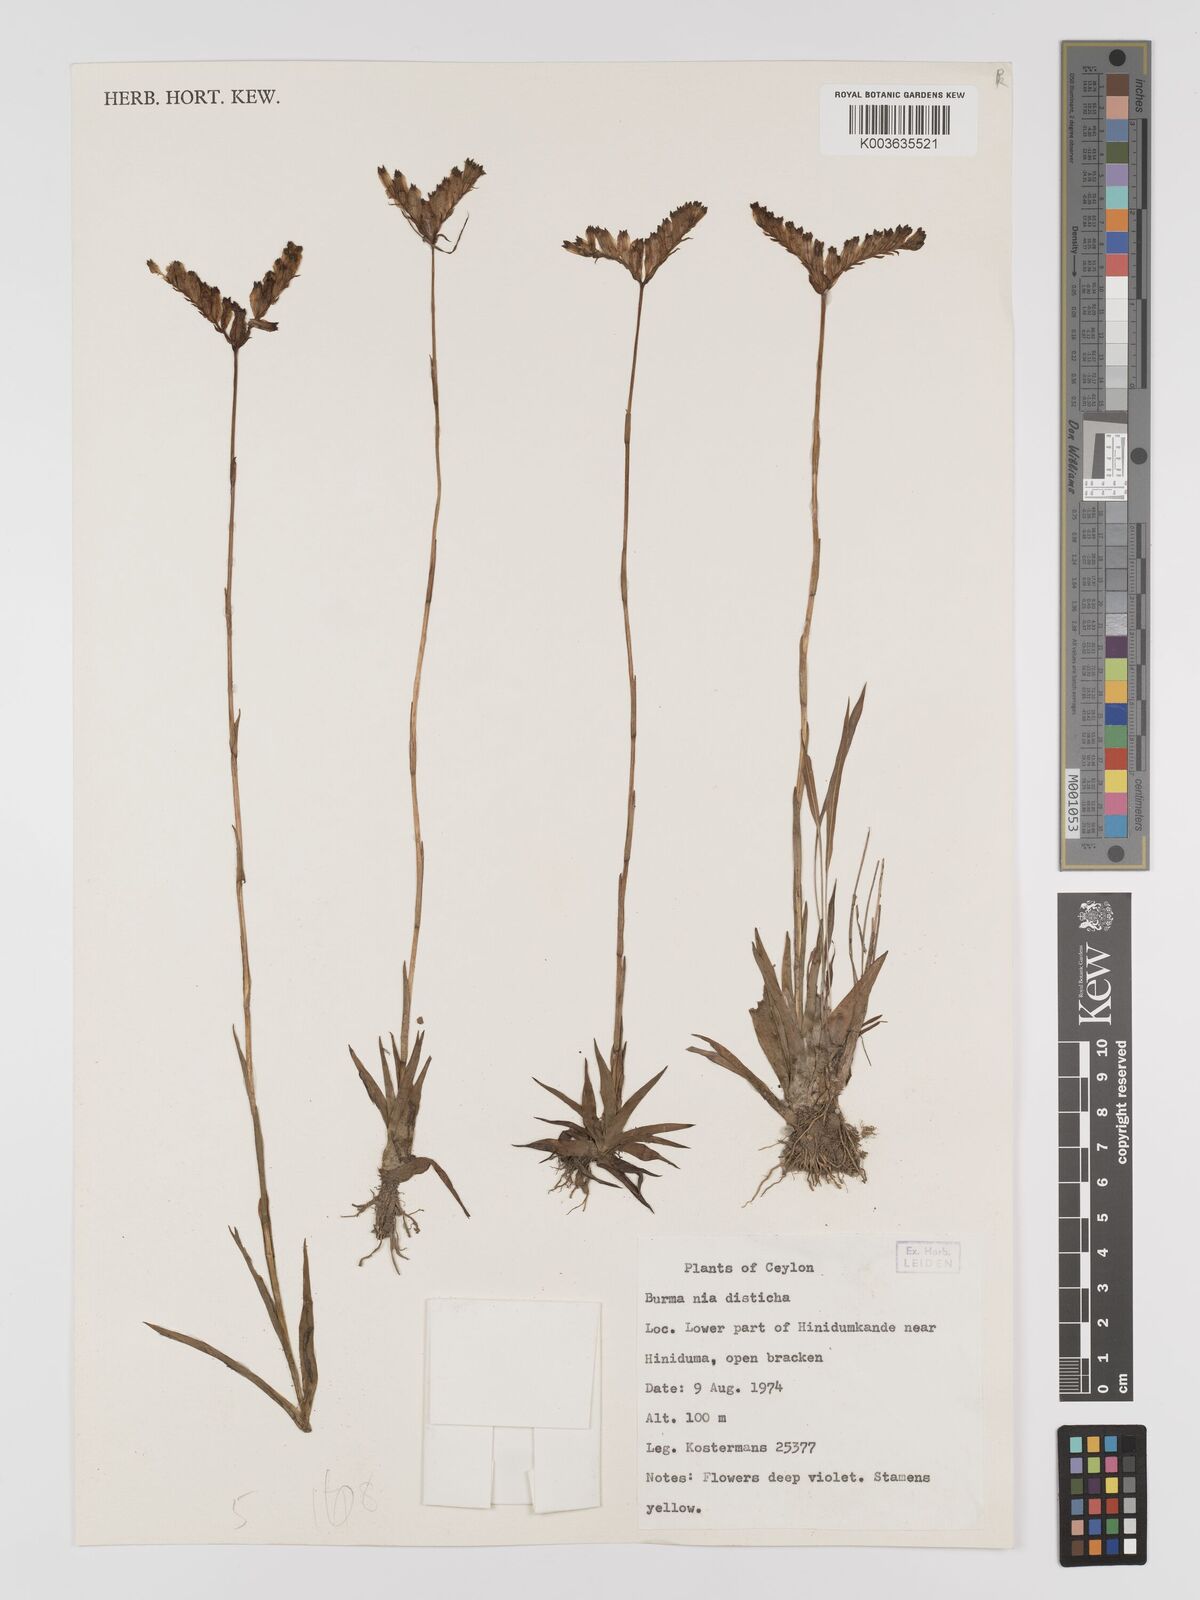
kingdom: Plantae
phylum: Tracheophyta
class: Liliopsida
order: Dioscoreales
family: Burmanniaceae
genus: Burmannia
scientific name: Burmannia disticha
